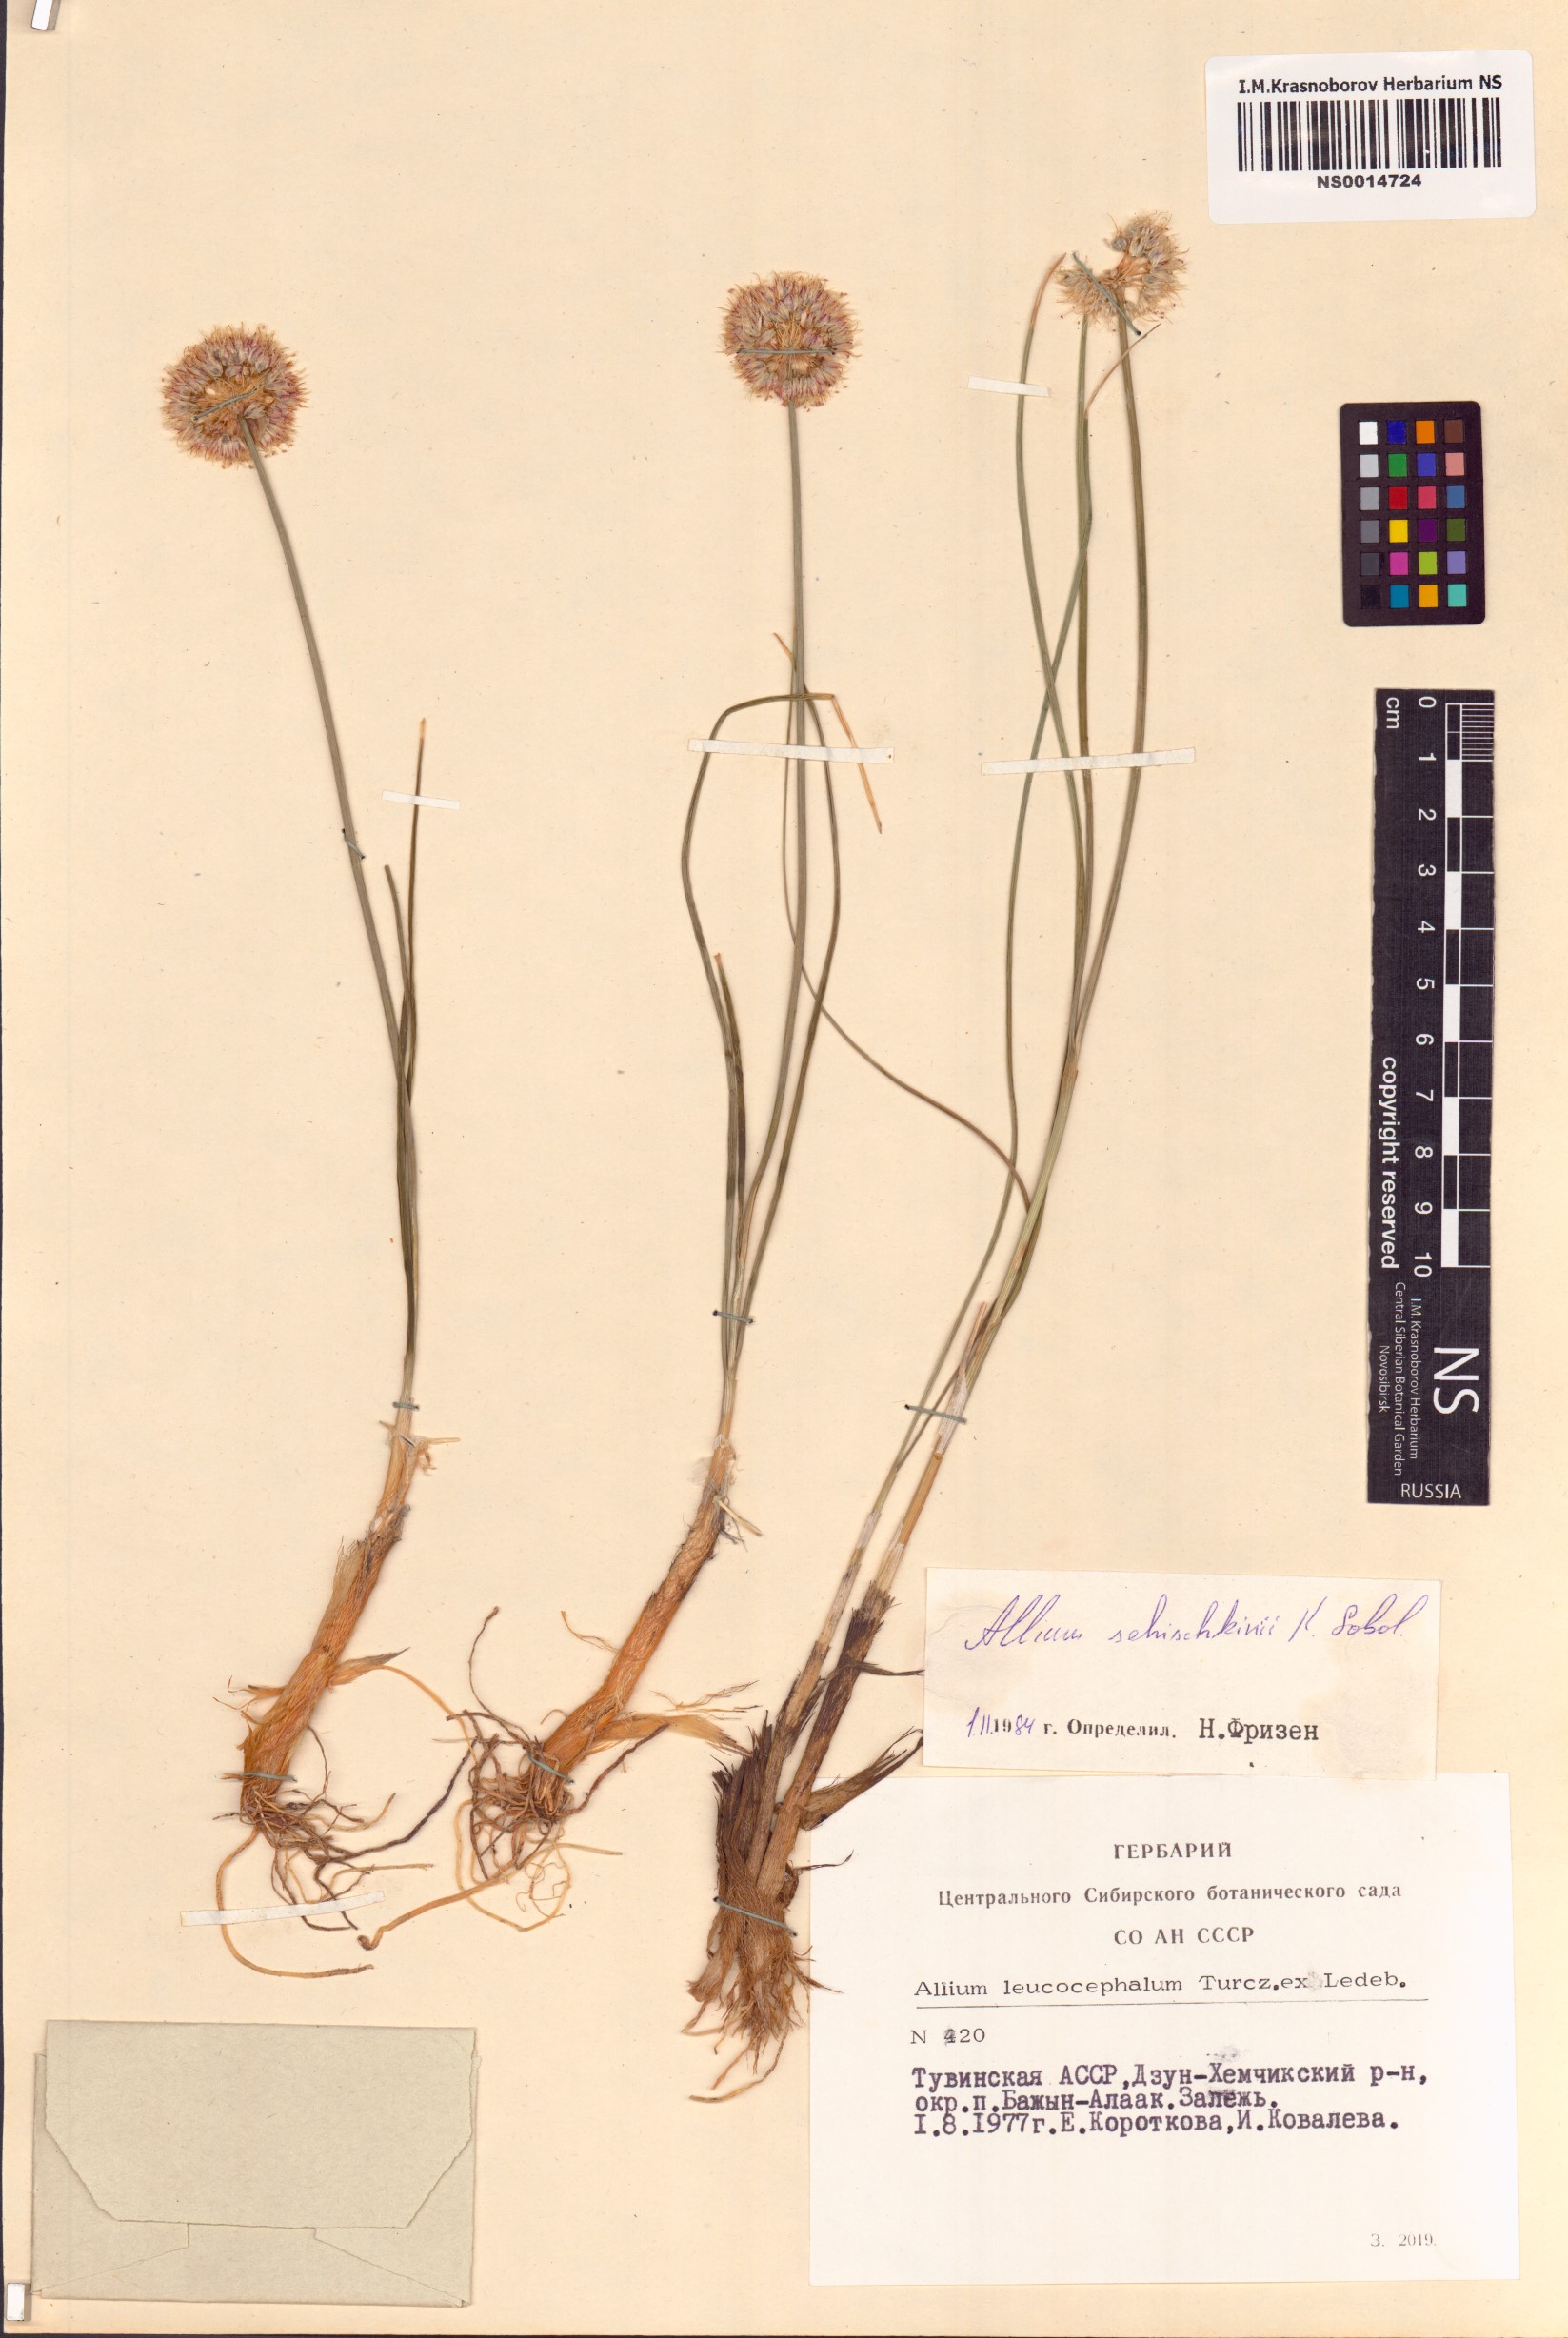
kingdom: Plantae
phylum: Tracheophyta
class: Liliopsida
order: Asparagales
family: Amaryllidaceae
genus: Allium
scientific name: Allium schischkinii
